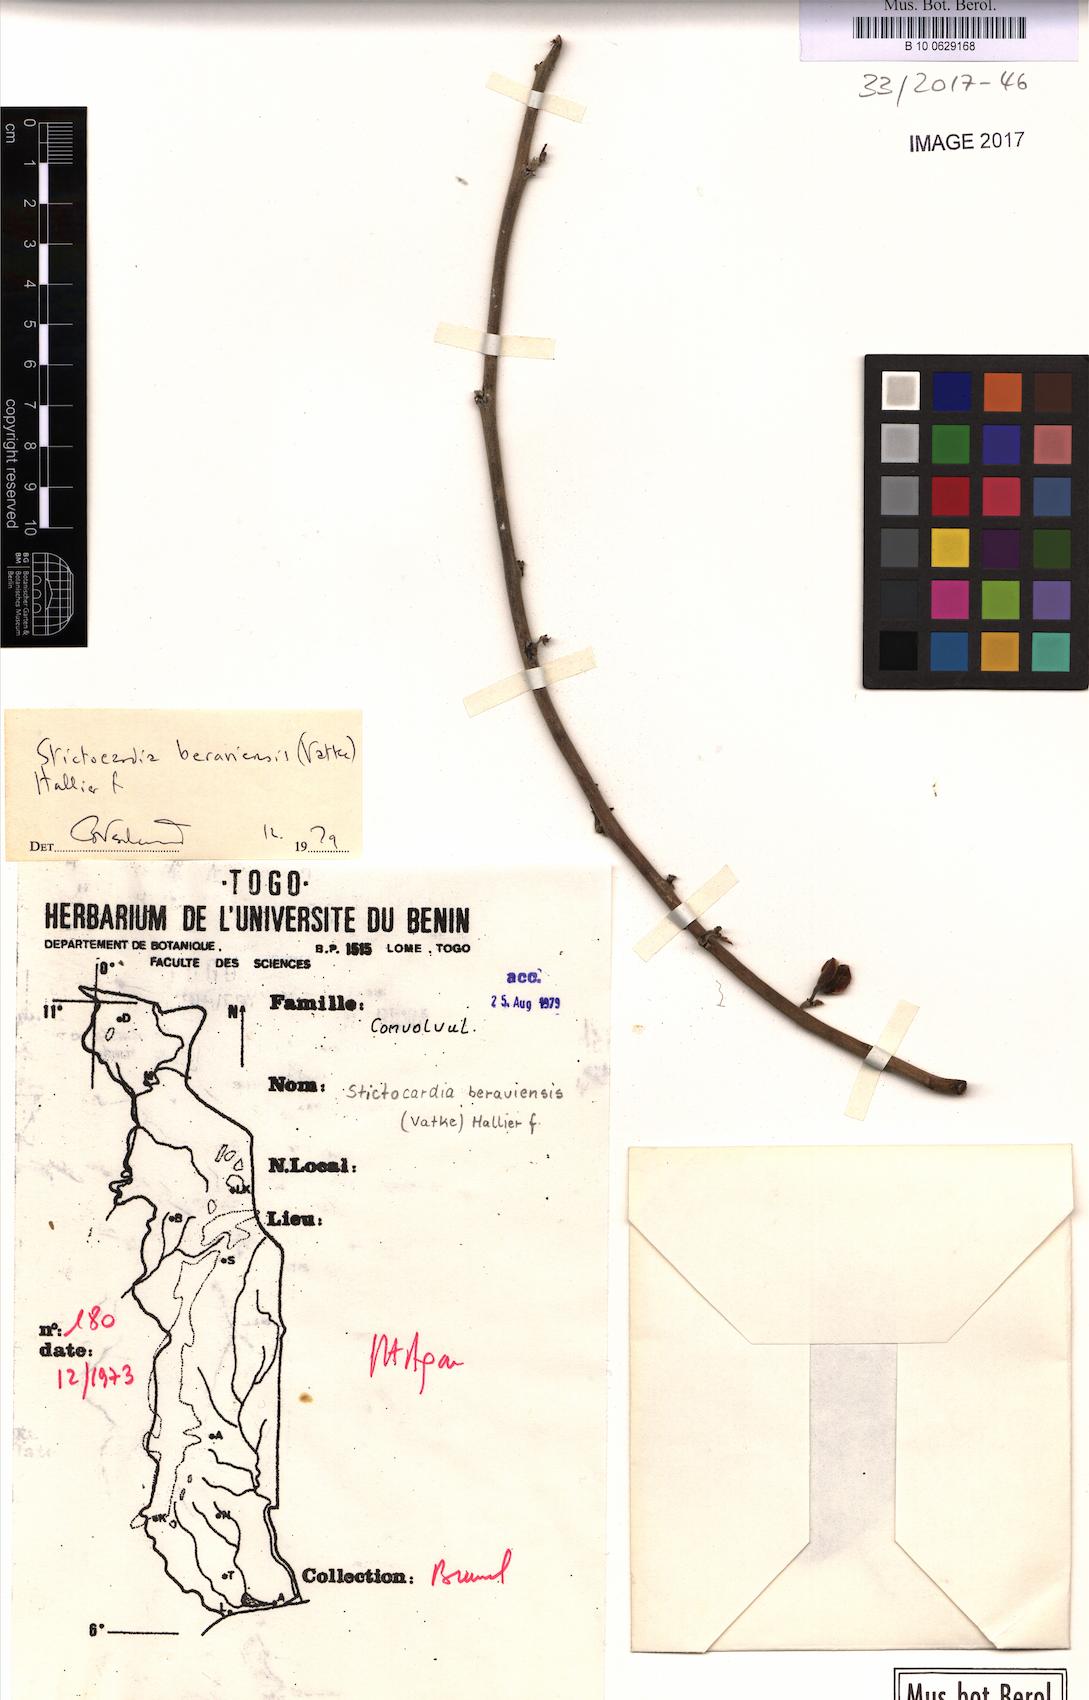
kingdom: Plantae
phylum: Tracheophyta
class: Magnoliopsida
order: Solanales
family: Convolvulaceae
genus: Stictocardia
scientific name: Stictocardia beraviensis
